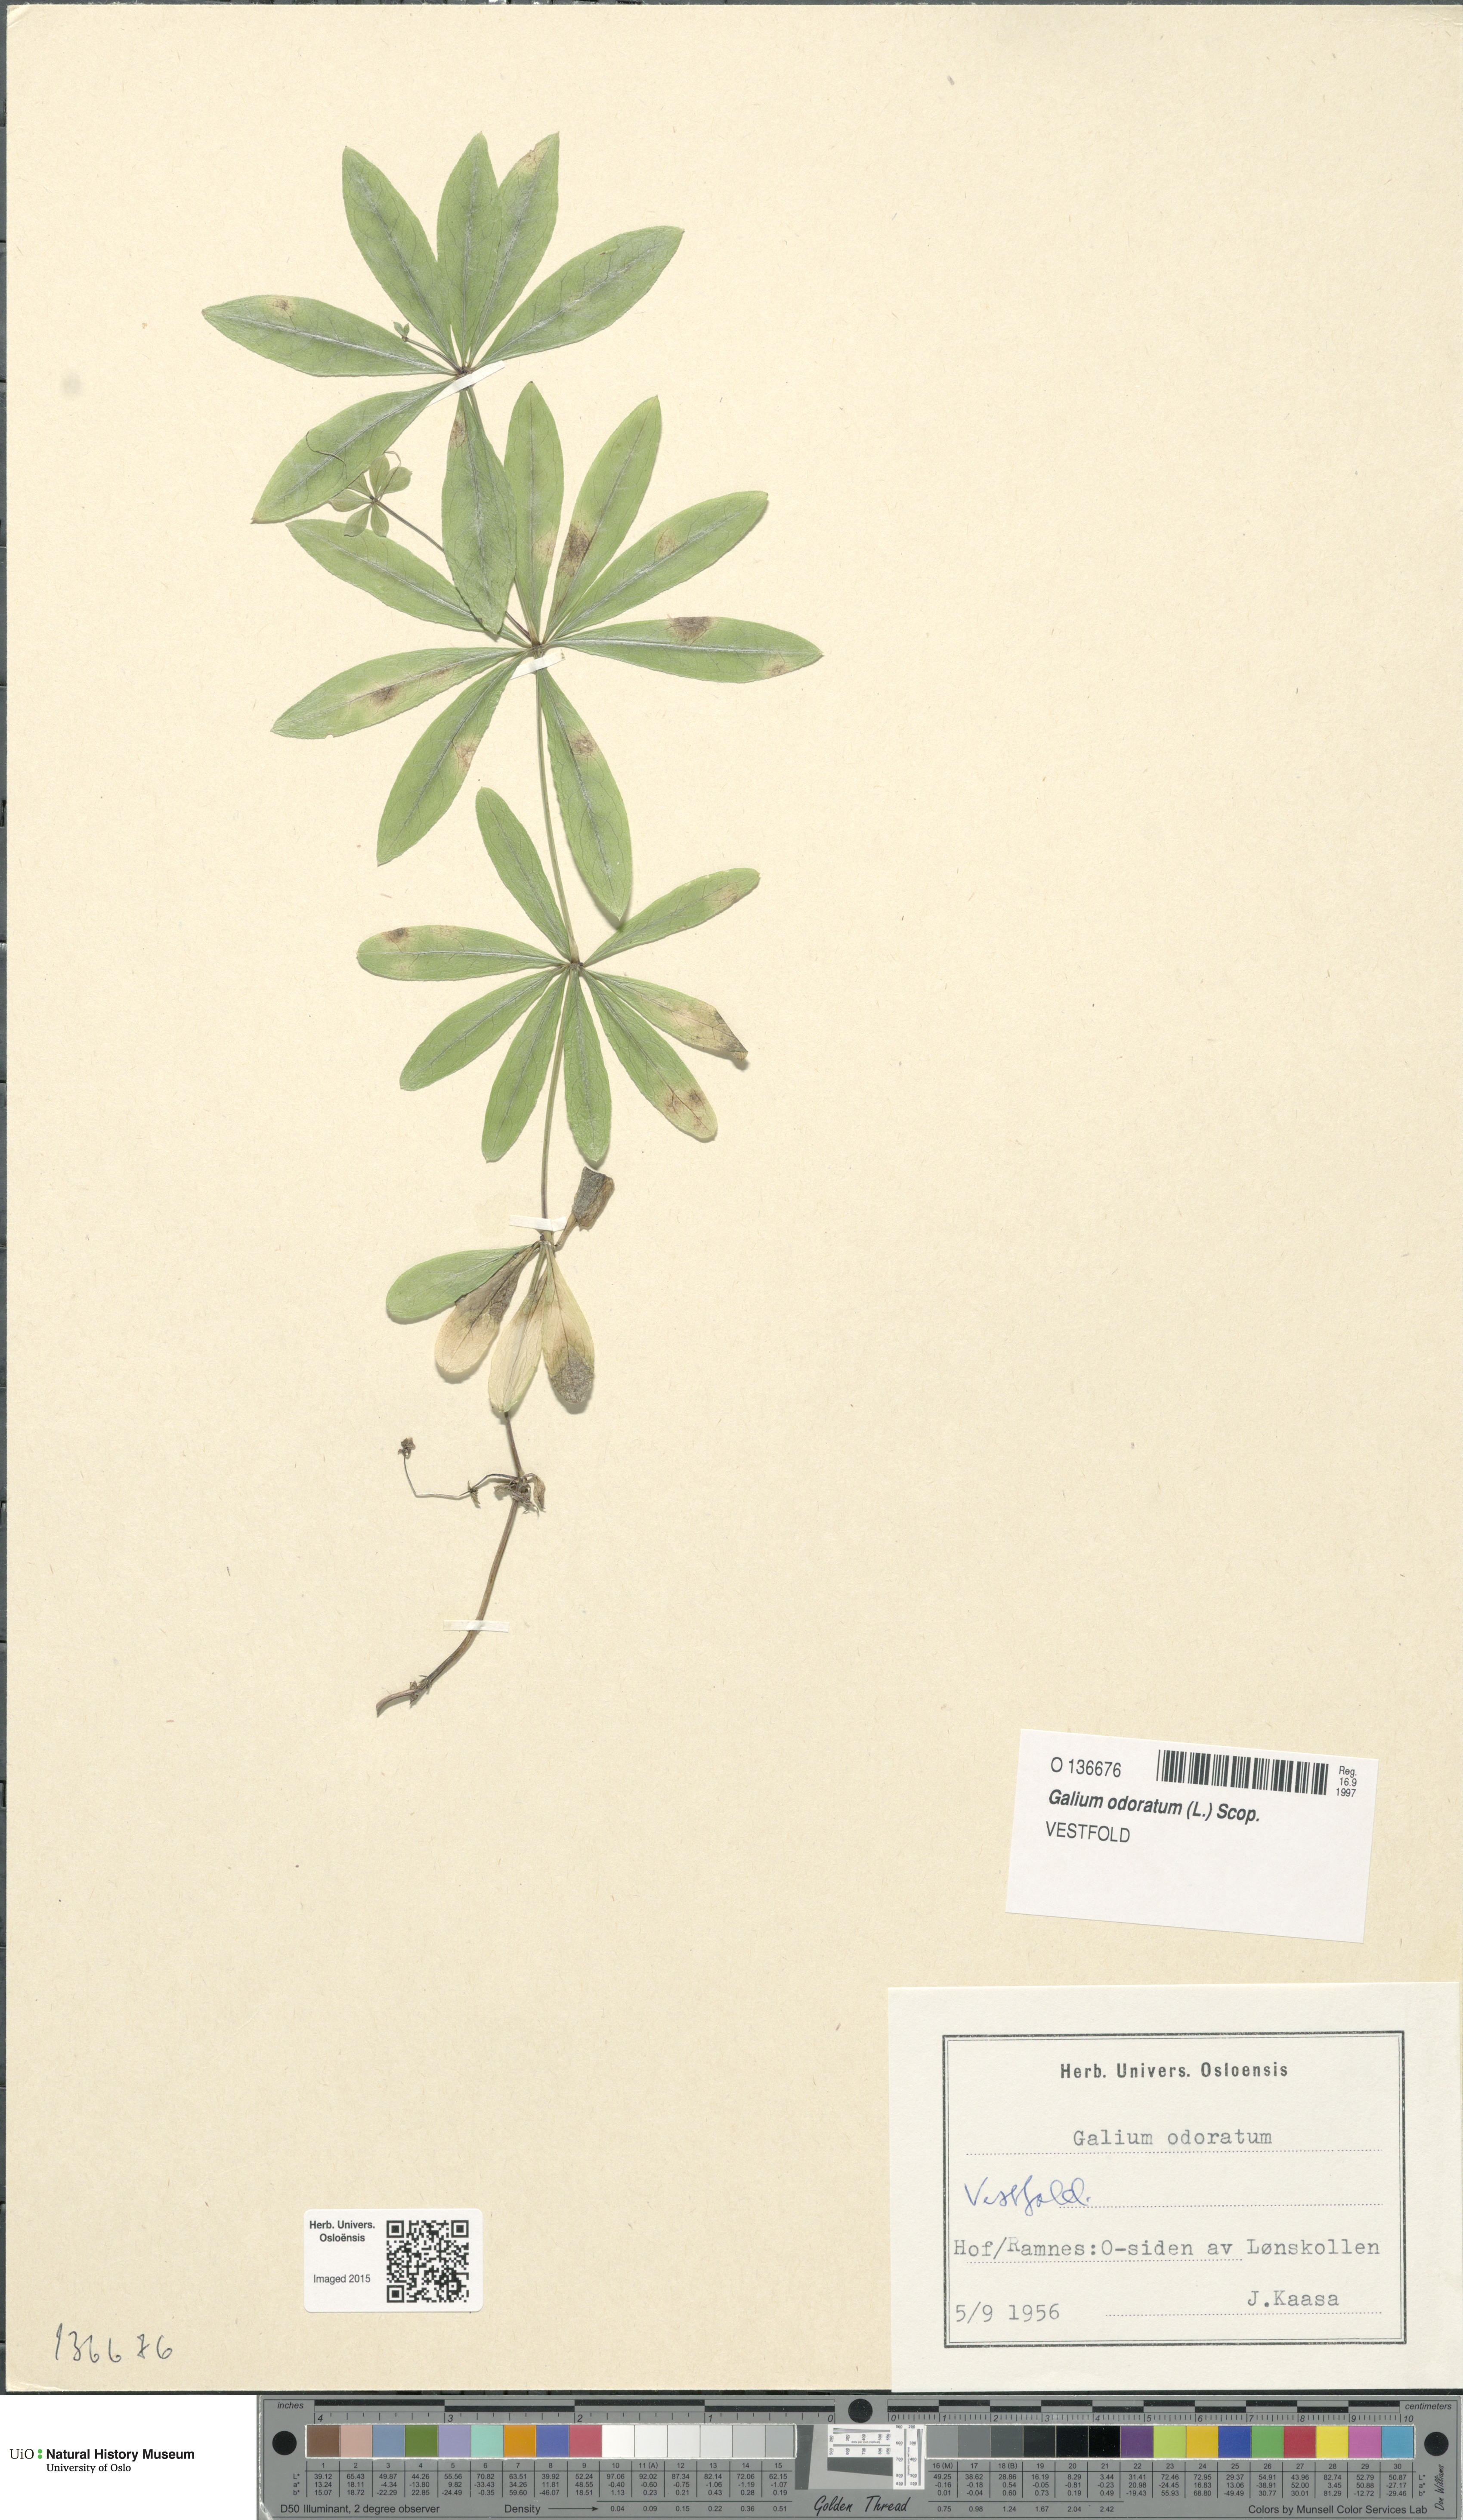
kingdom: Plantae
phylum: Tracheophyta
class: Magnoliopsida
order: Gentianales
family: Rubiaceae
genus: Galium
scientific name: Galium odoratum
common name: Sweet woodruff
